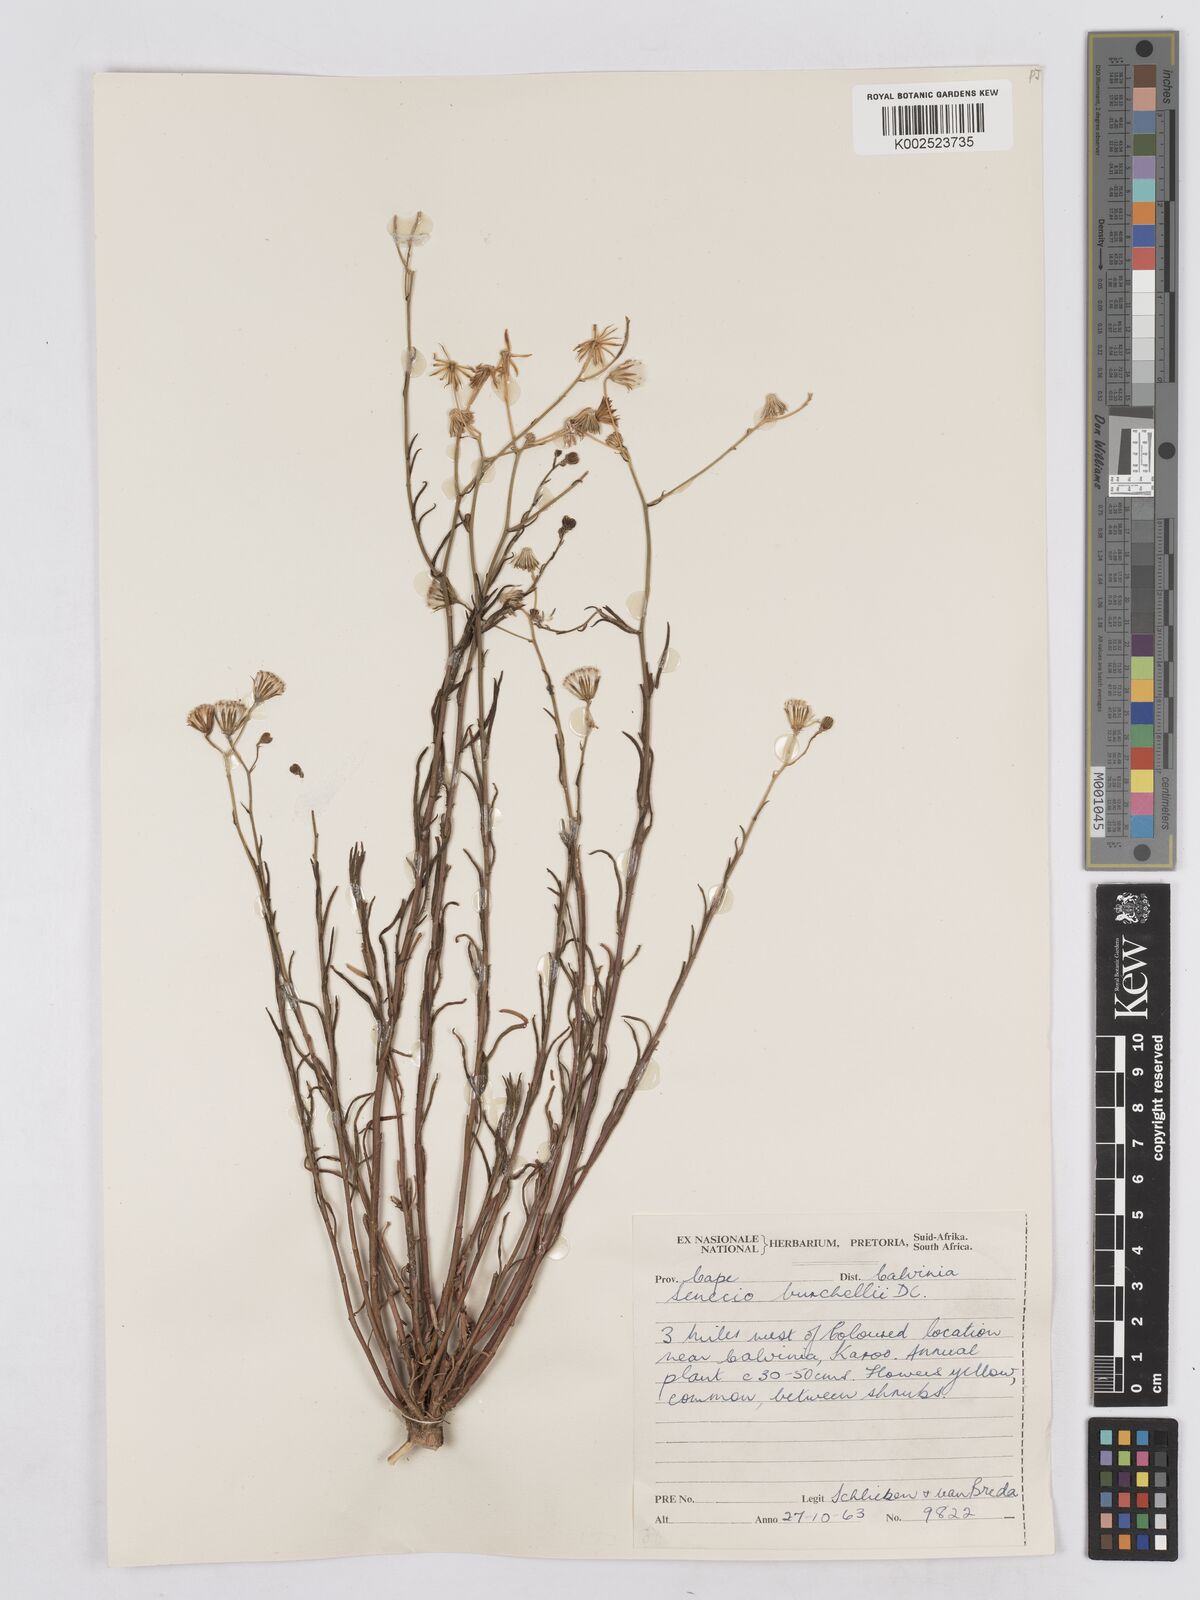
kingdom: Plantae
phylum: Tracheophyta
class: Magnoliopsida
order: Asterales
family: Asteraceae
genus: Senecio
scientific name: Senecio burchellii
